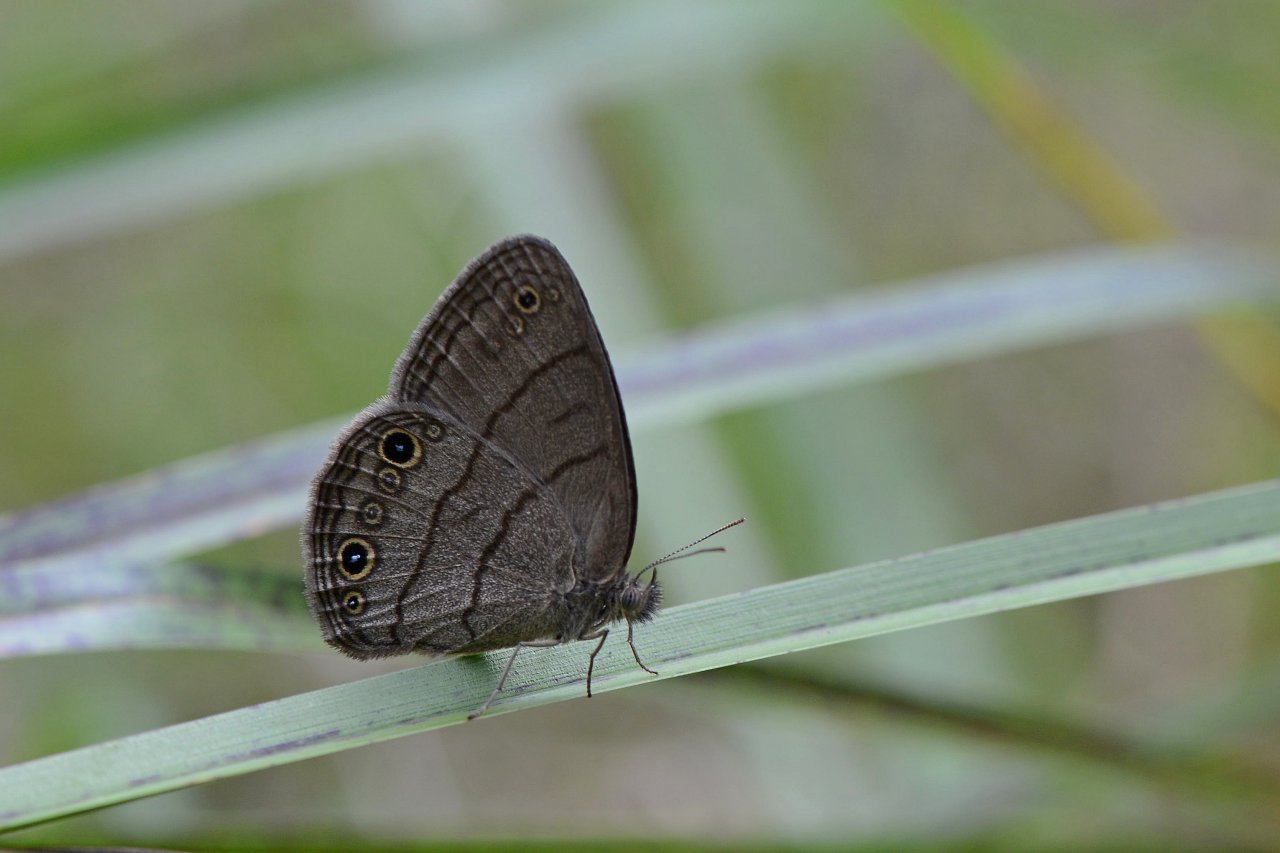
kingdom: Animalia
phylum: Arthropoda
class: Insecta
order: Lepidoptera
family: Nymphalidae
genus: Hermeuptychia
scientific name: Hermeuptychia hermes
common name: Carolina Satyr
